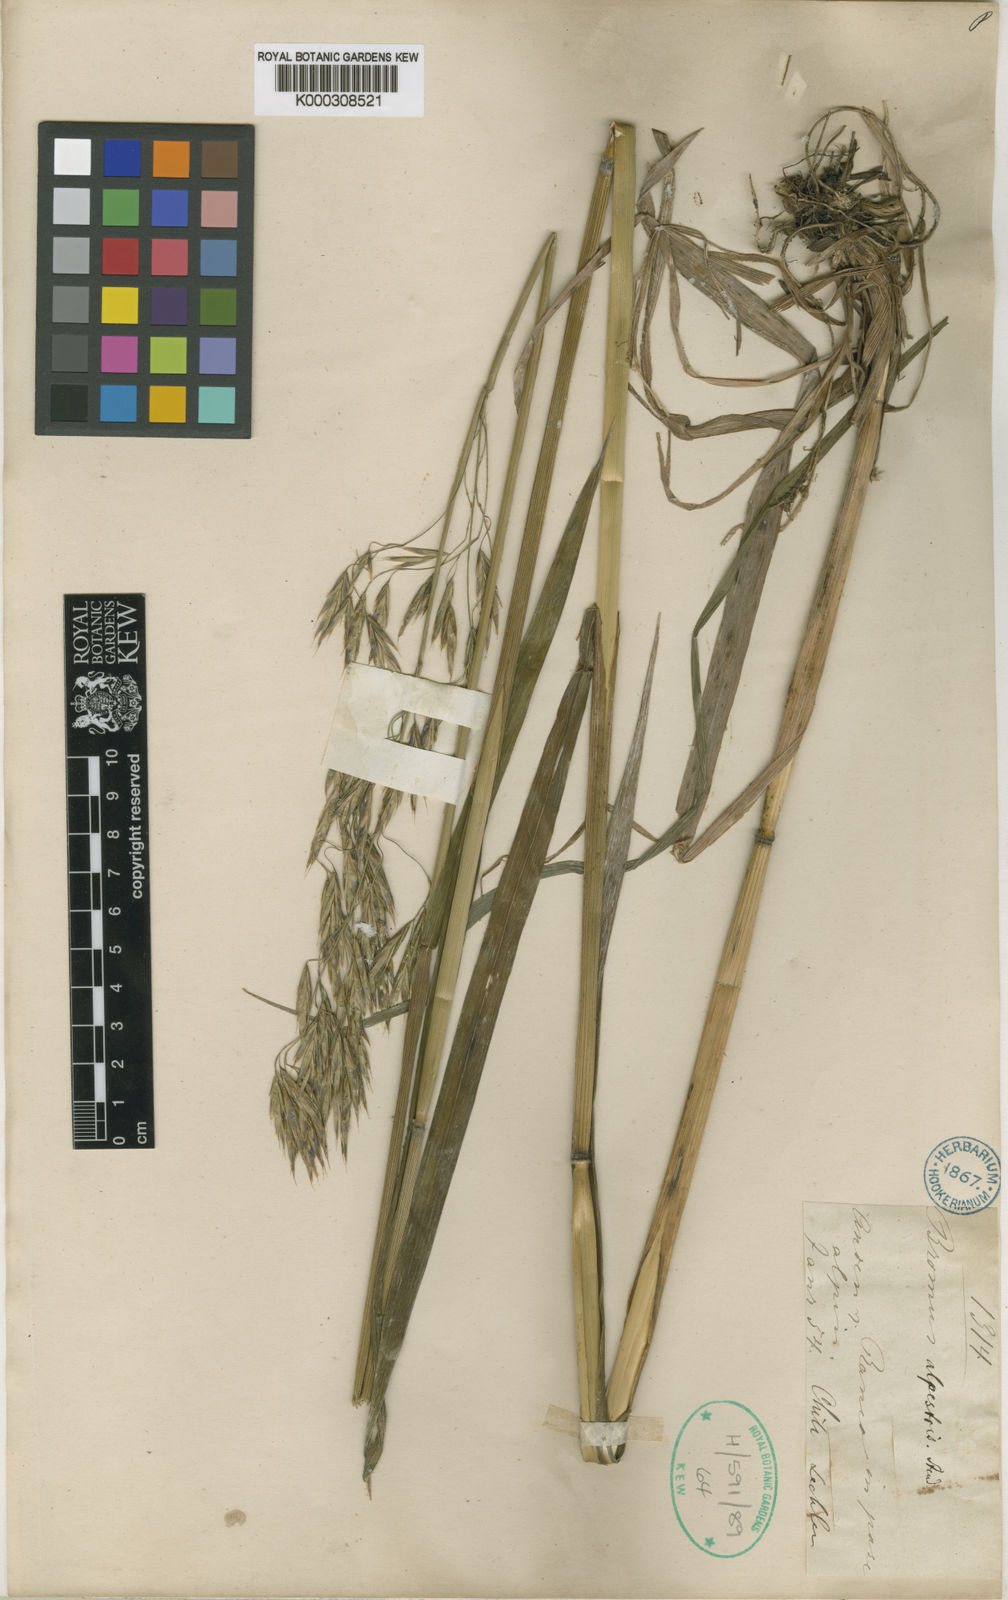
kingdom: Plantae
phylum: Tracheophyta
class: Liliopsida
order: Poales
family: Poaceae
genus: Bromus
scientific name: Bromus coloratus
